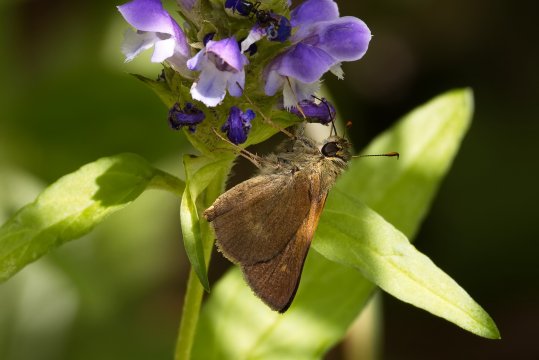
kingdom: Animalia
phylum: Arthropoda
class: Insecta
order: Lepidoptera
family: Hesperiidae
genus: Polites
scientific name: Polites egeremet
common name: Northern Broken-Dash
